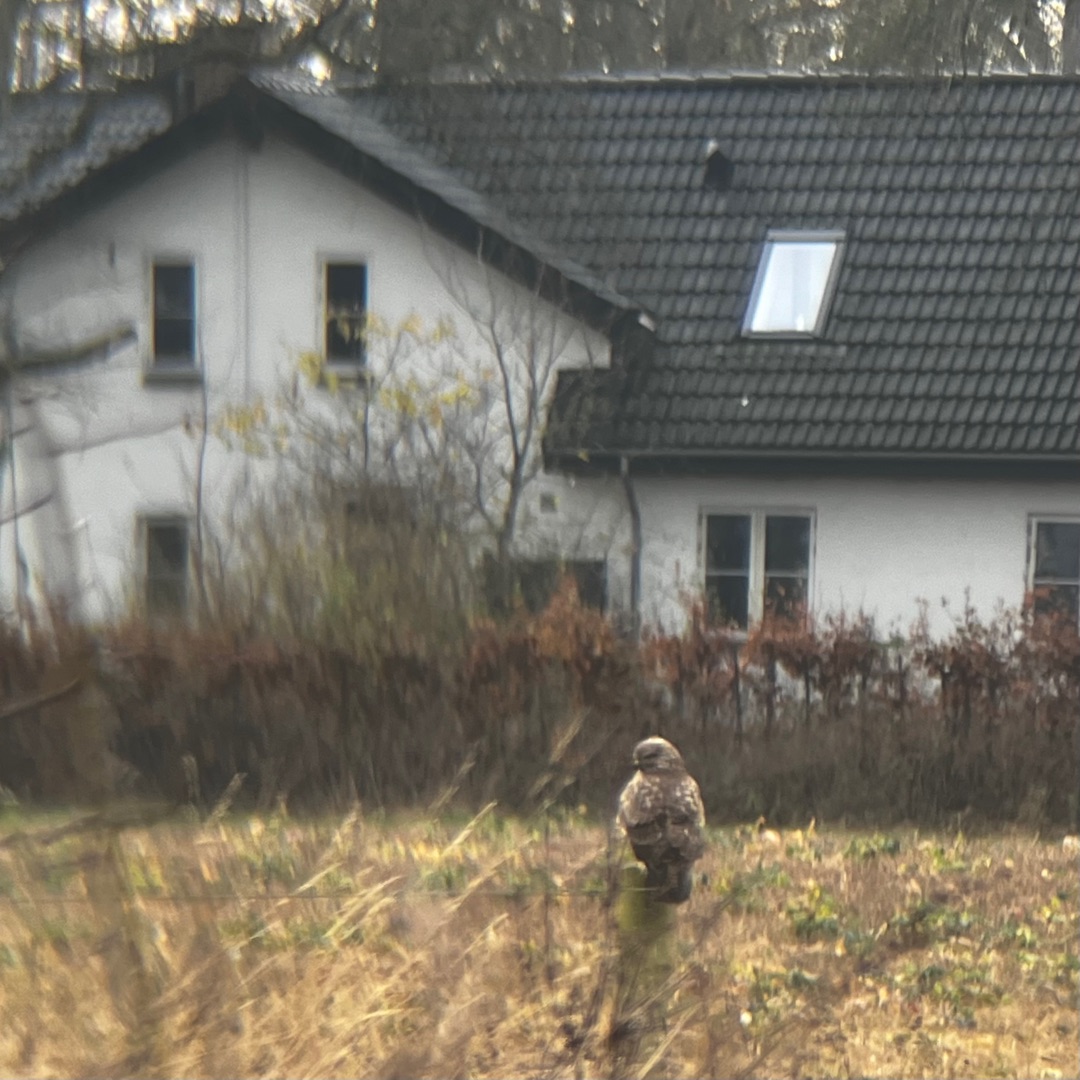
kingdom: Animalia
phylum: Chordata
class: Aves
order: Accipitriformes
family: Accipitridae
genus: Buteo
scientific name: Buteo buteo
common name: Musvåge
